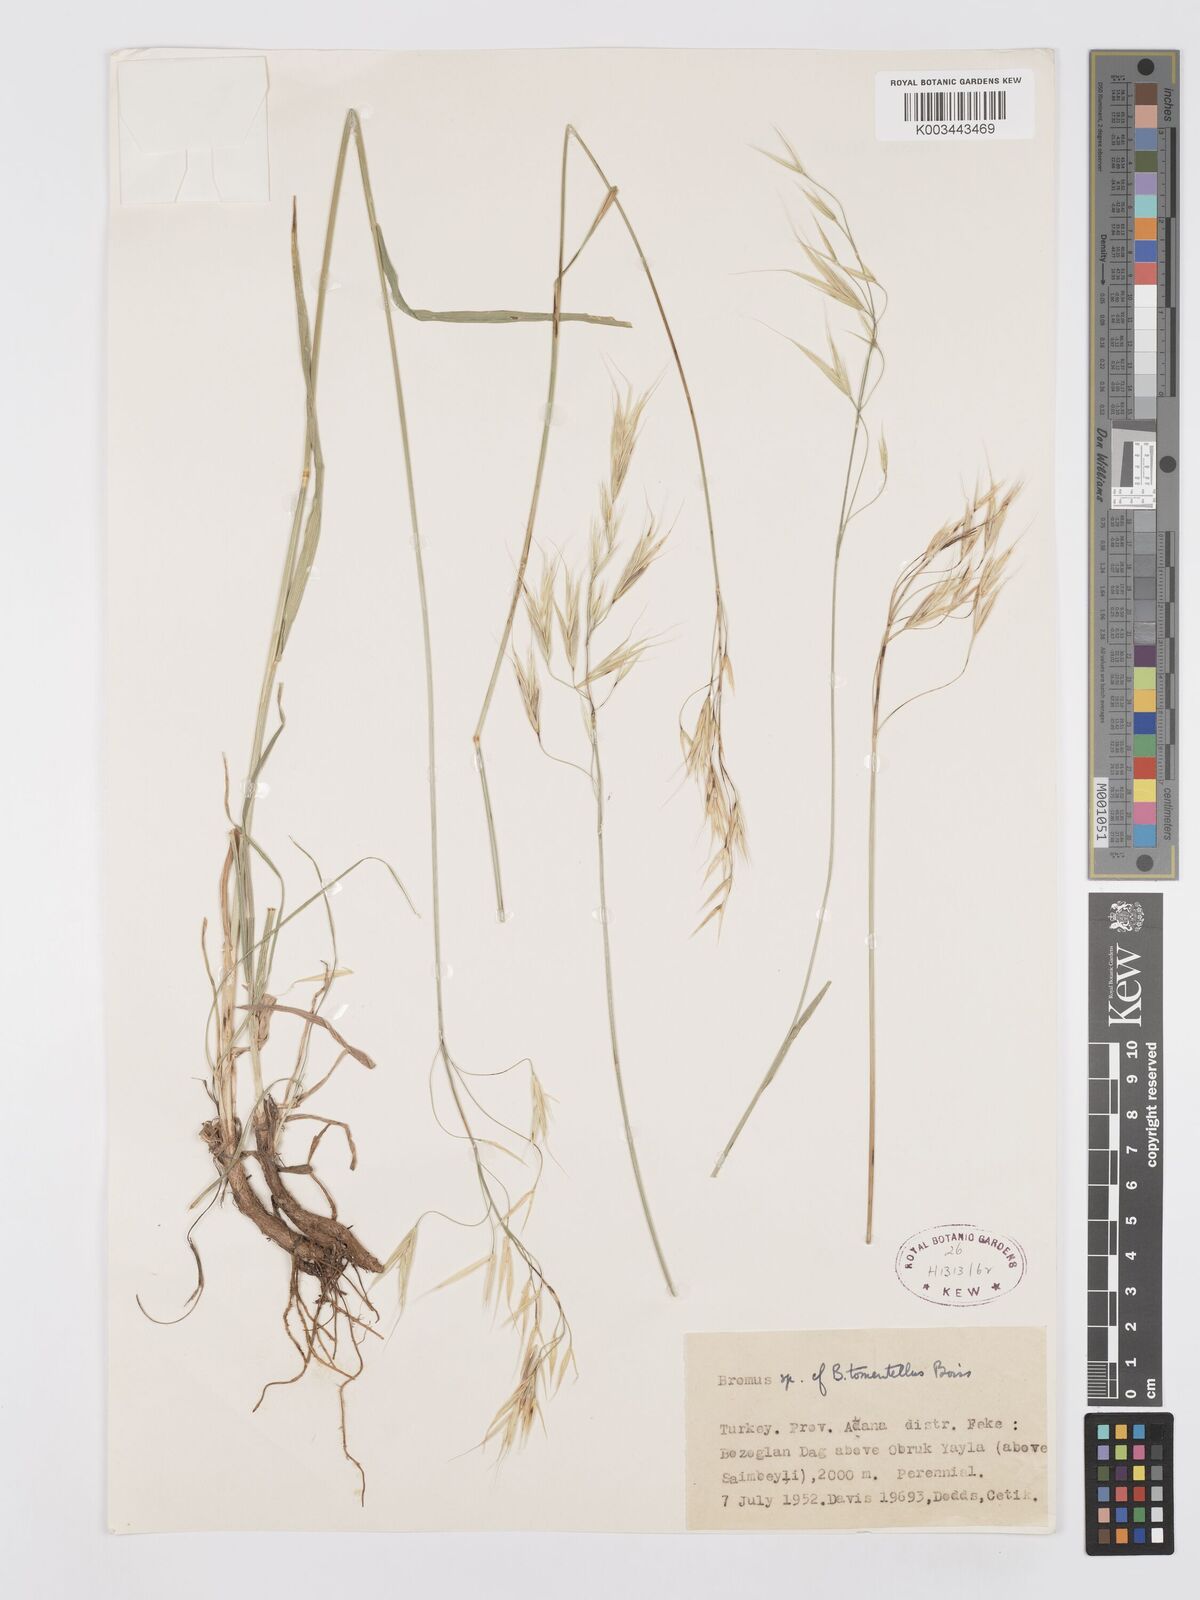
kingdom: Plantae
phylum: Tracheophyta
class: Liliopsida
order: Poales
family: Poaceae
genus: Bromus
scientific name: Bromus tomentellus
